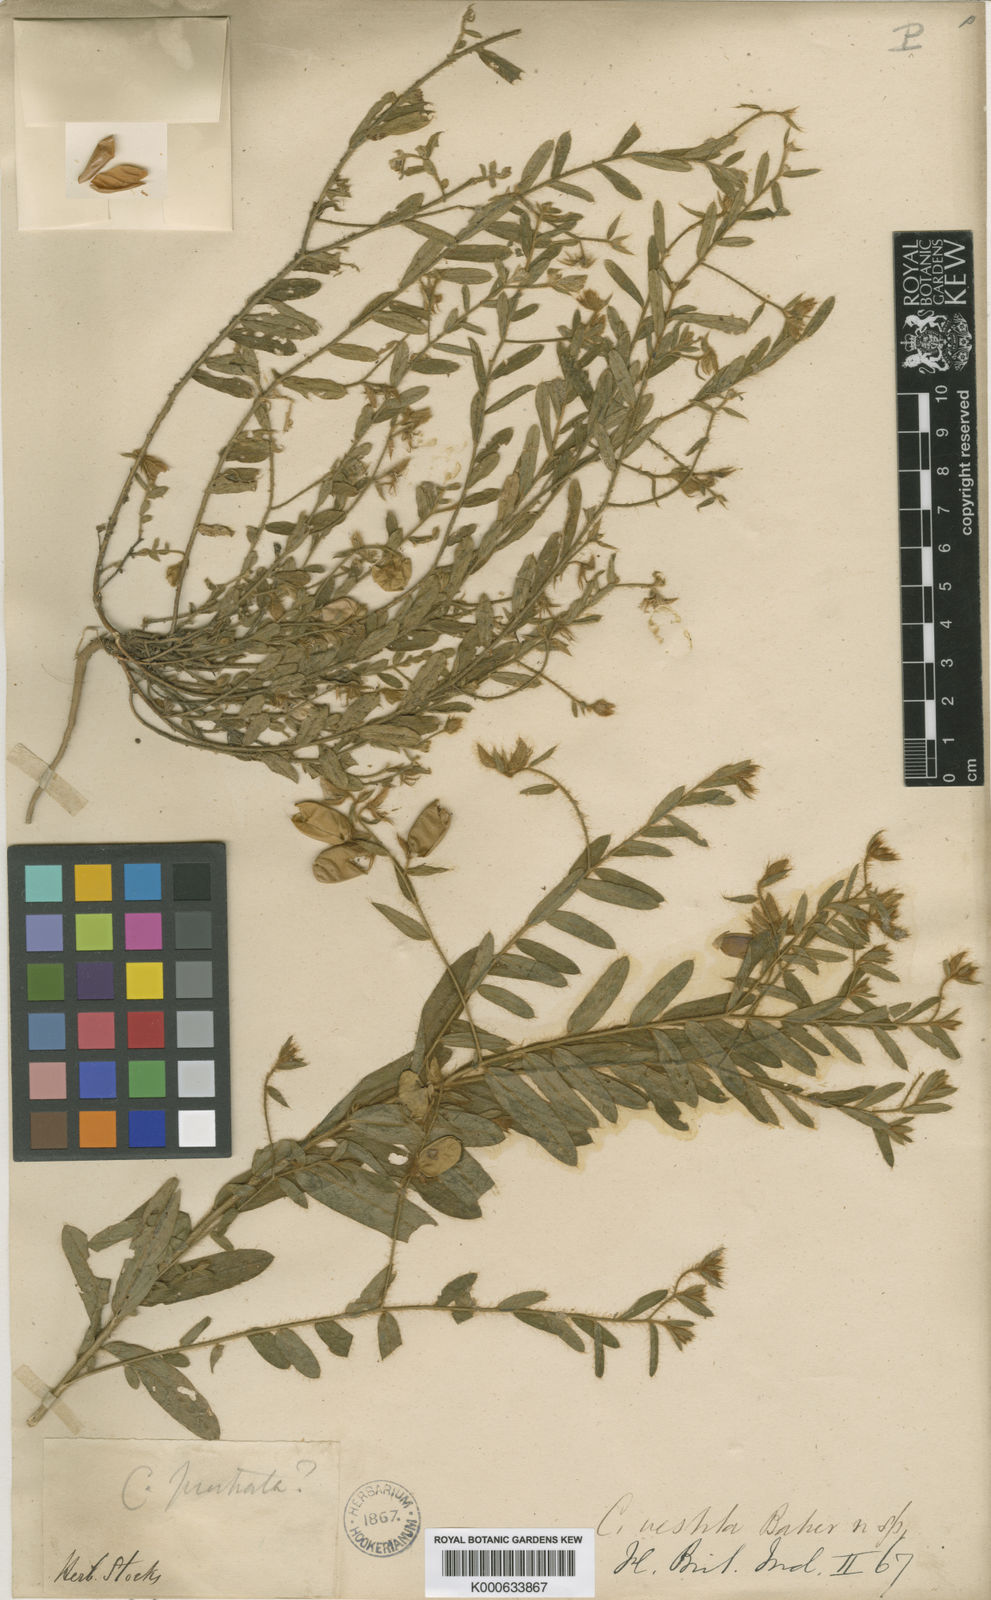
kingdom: Plantae
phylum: Tracheophyta
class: Magnoliopsida
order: Fabales
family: Fabaceae
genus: Crotalaria
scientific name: Crotalaria vestita
